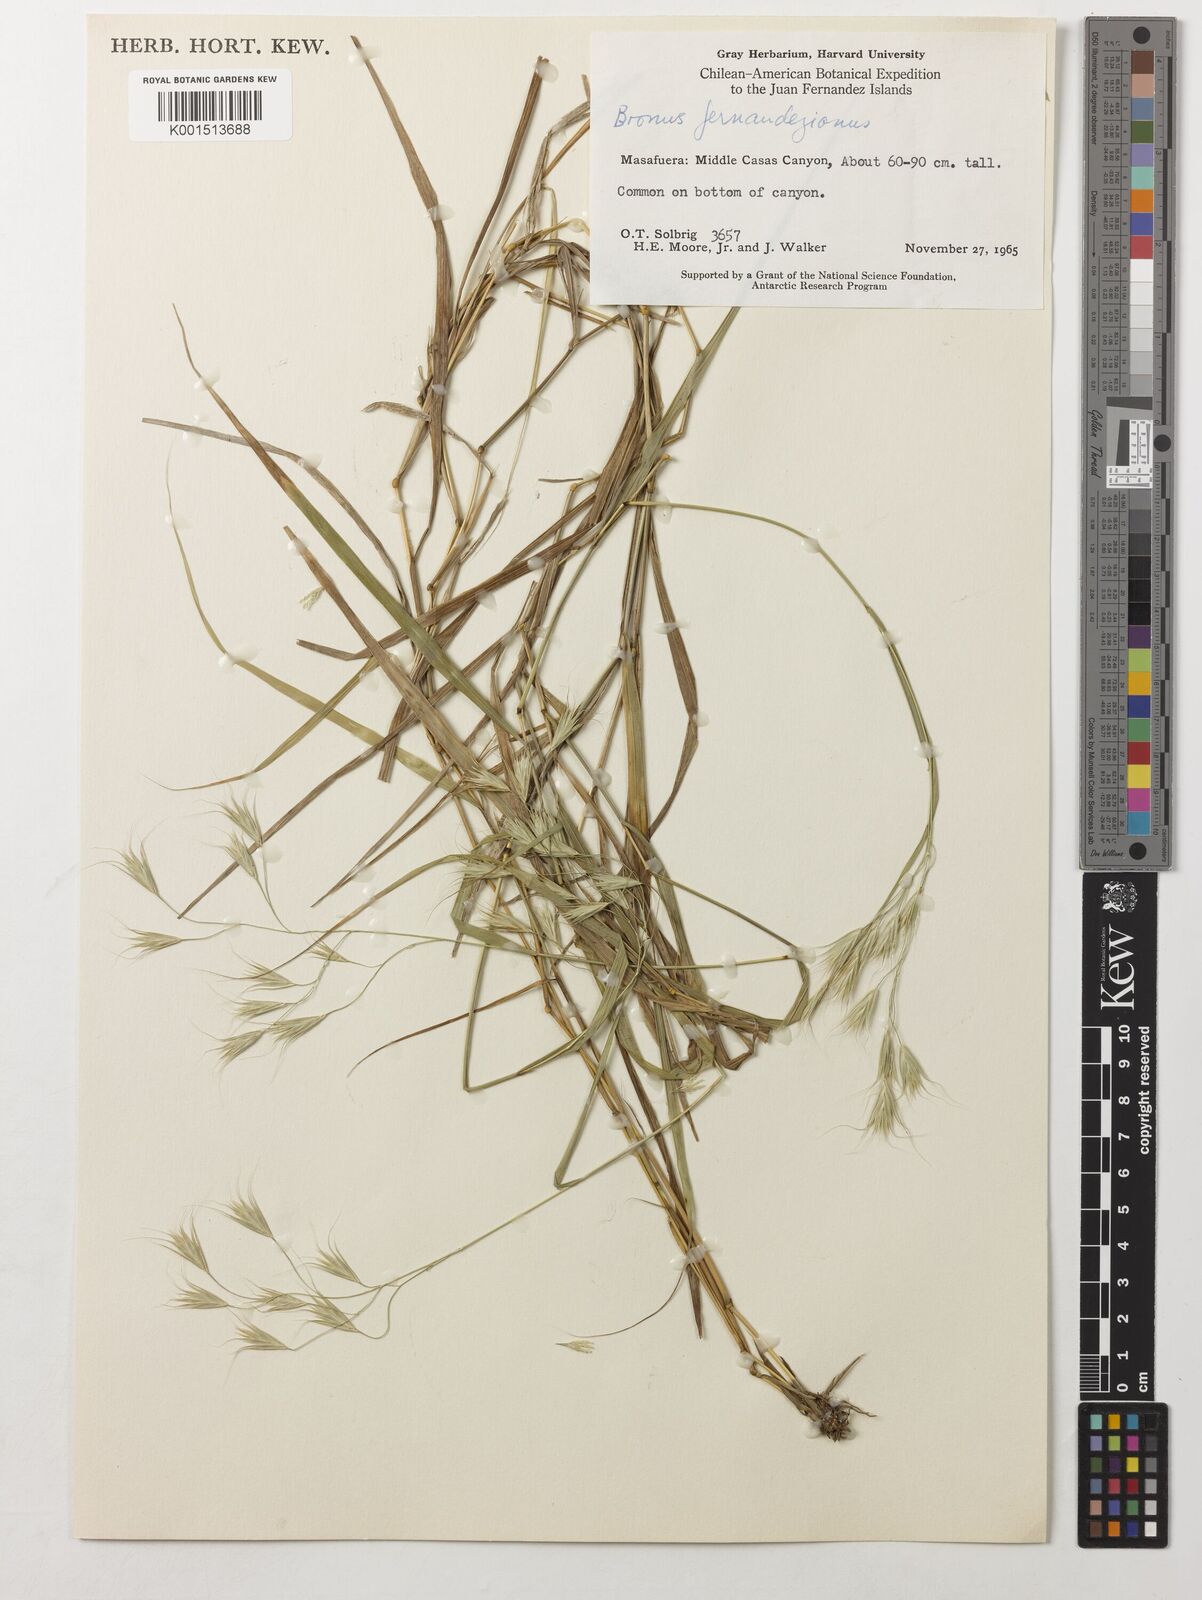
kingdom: Plantae
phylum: Tracheophyta
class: Liliopsida
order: Poales
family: Poaceae
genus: Festuca
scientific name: Festuca masafuerana
